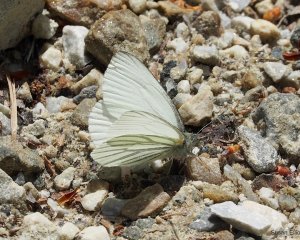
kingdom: Animalia
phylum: Arthropoda
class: Insecta
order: Lepidoptera
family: Pieridae
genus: Pieris
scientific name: Pieris oleracea
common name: Mustard White
